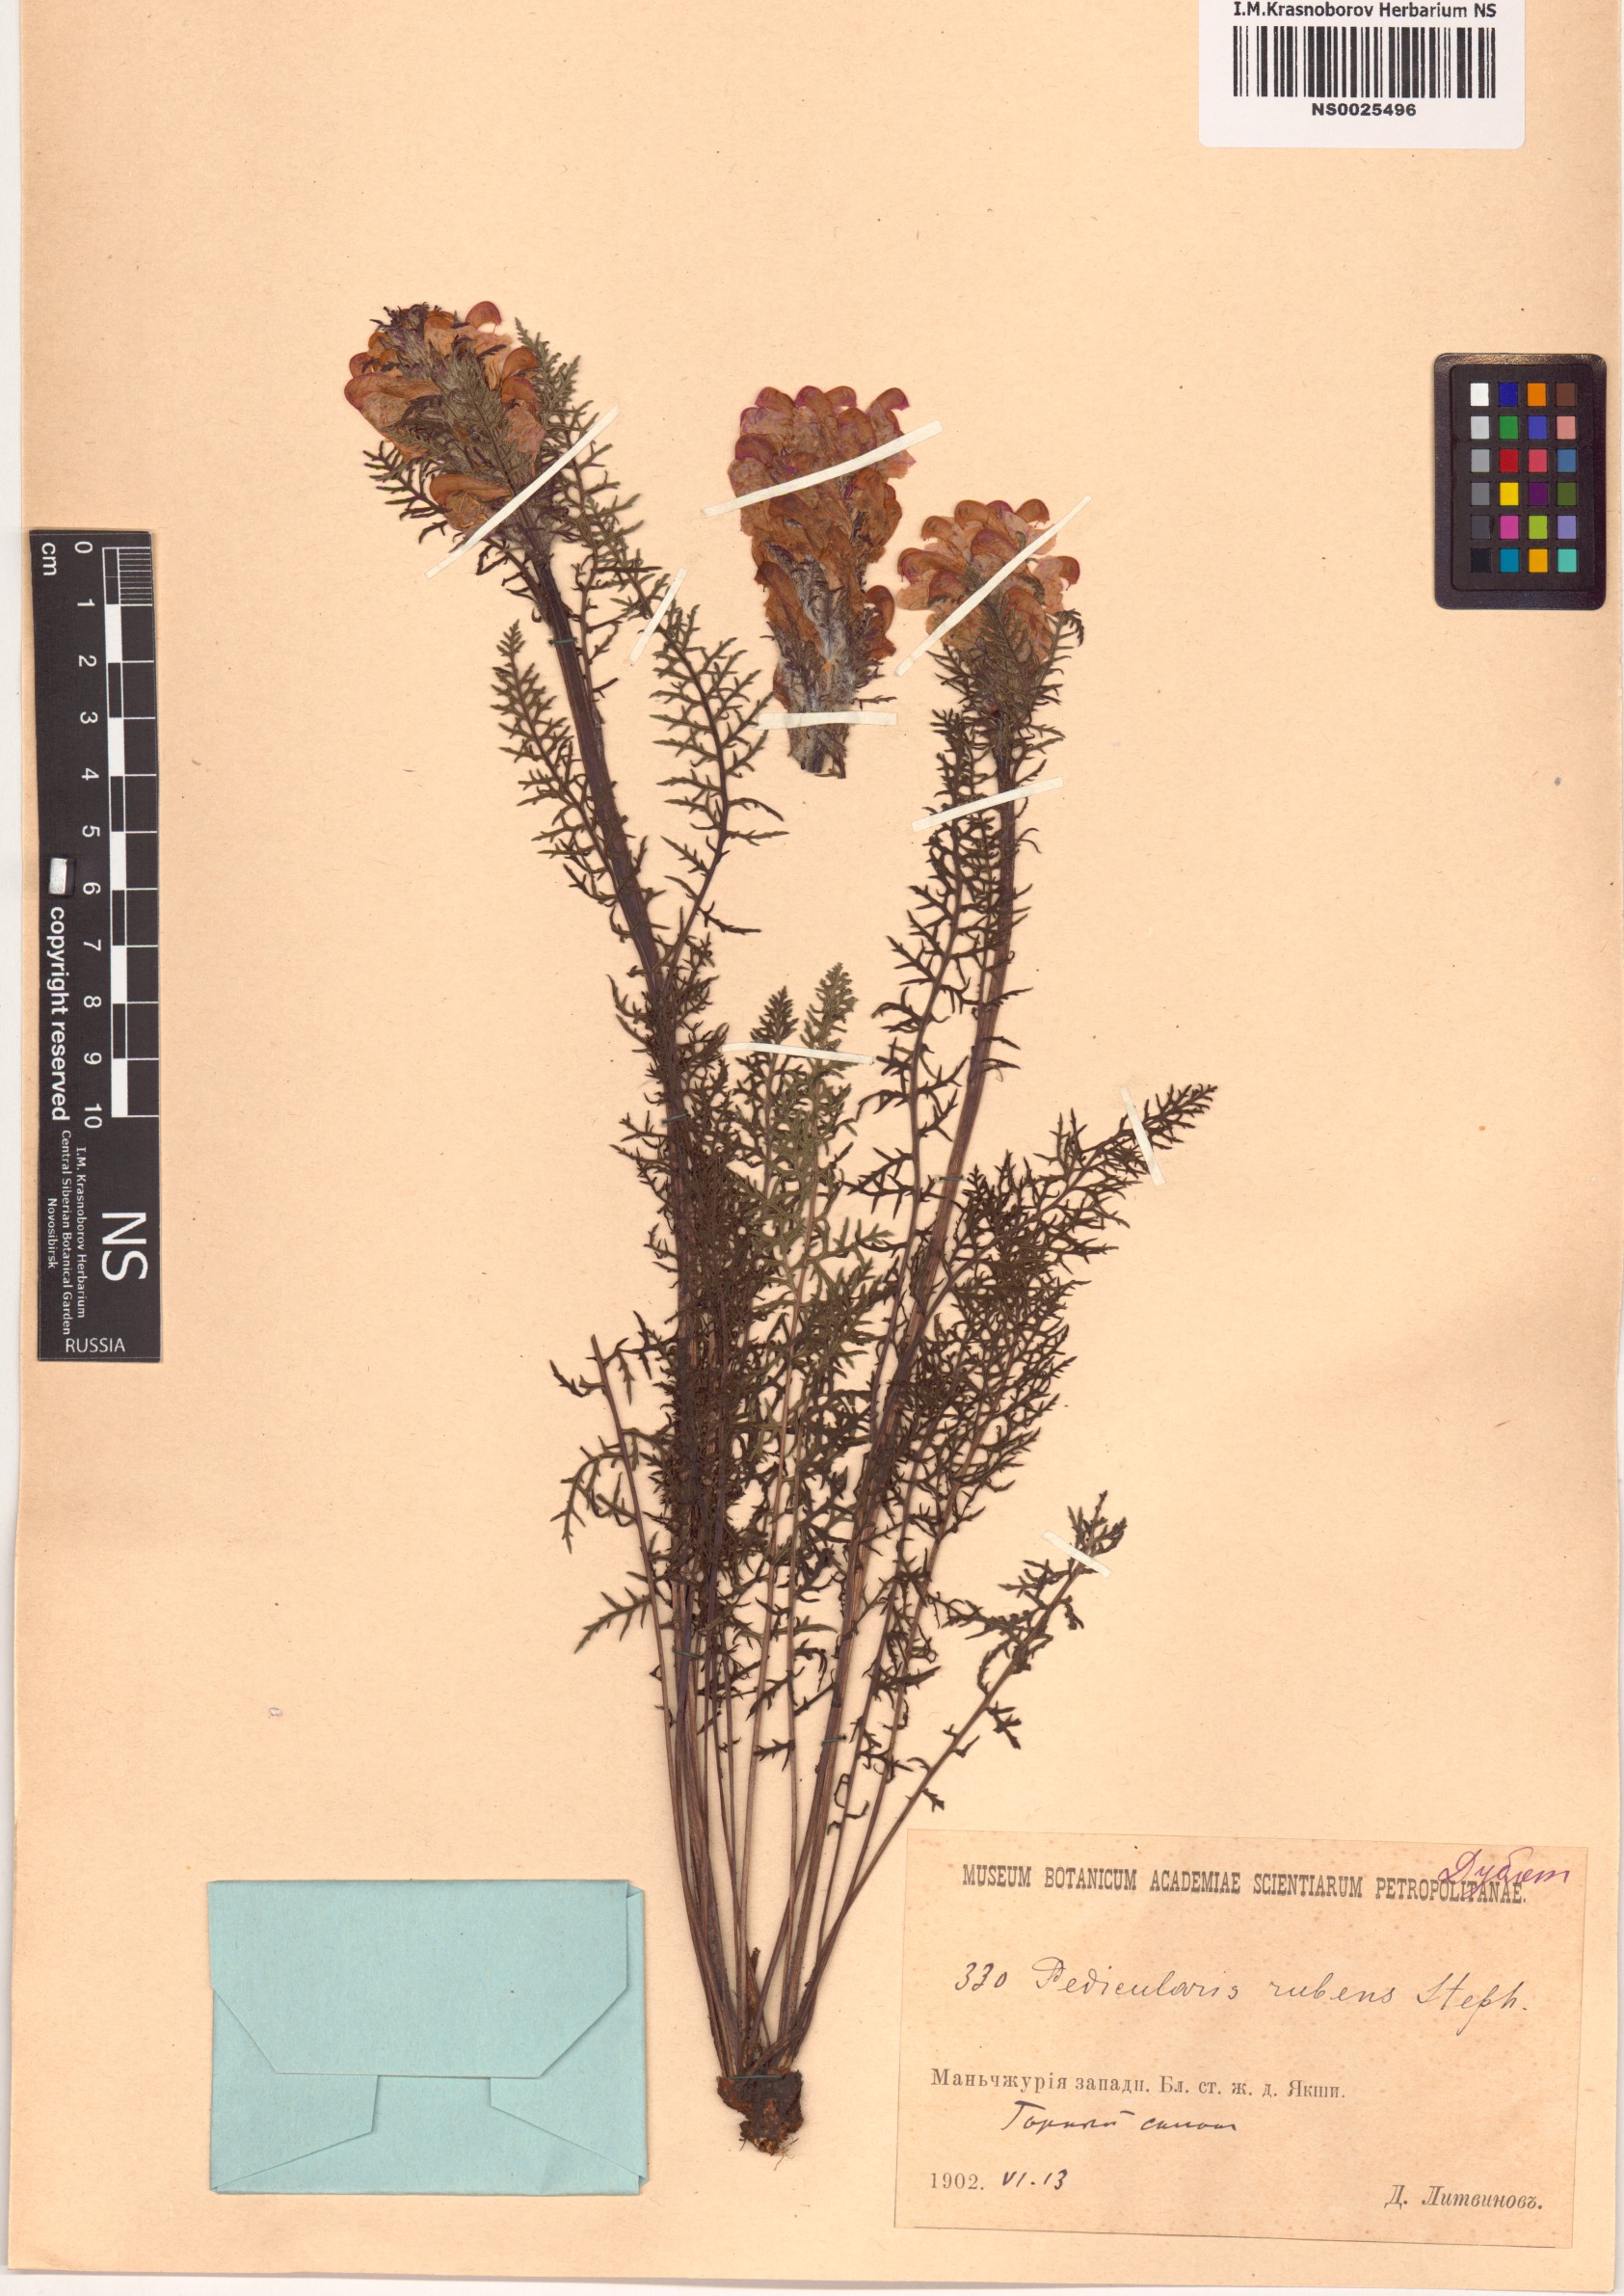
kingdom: Plantae
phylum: Tracheophyta
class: Magnoliopsida
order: Lamiales
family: Orobanchaceae
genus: Pedicularis
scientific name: Pedicularis rubens
